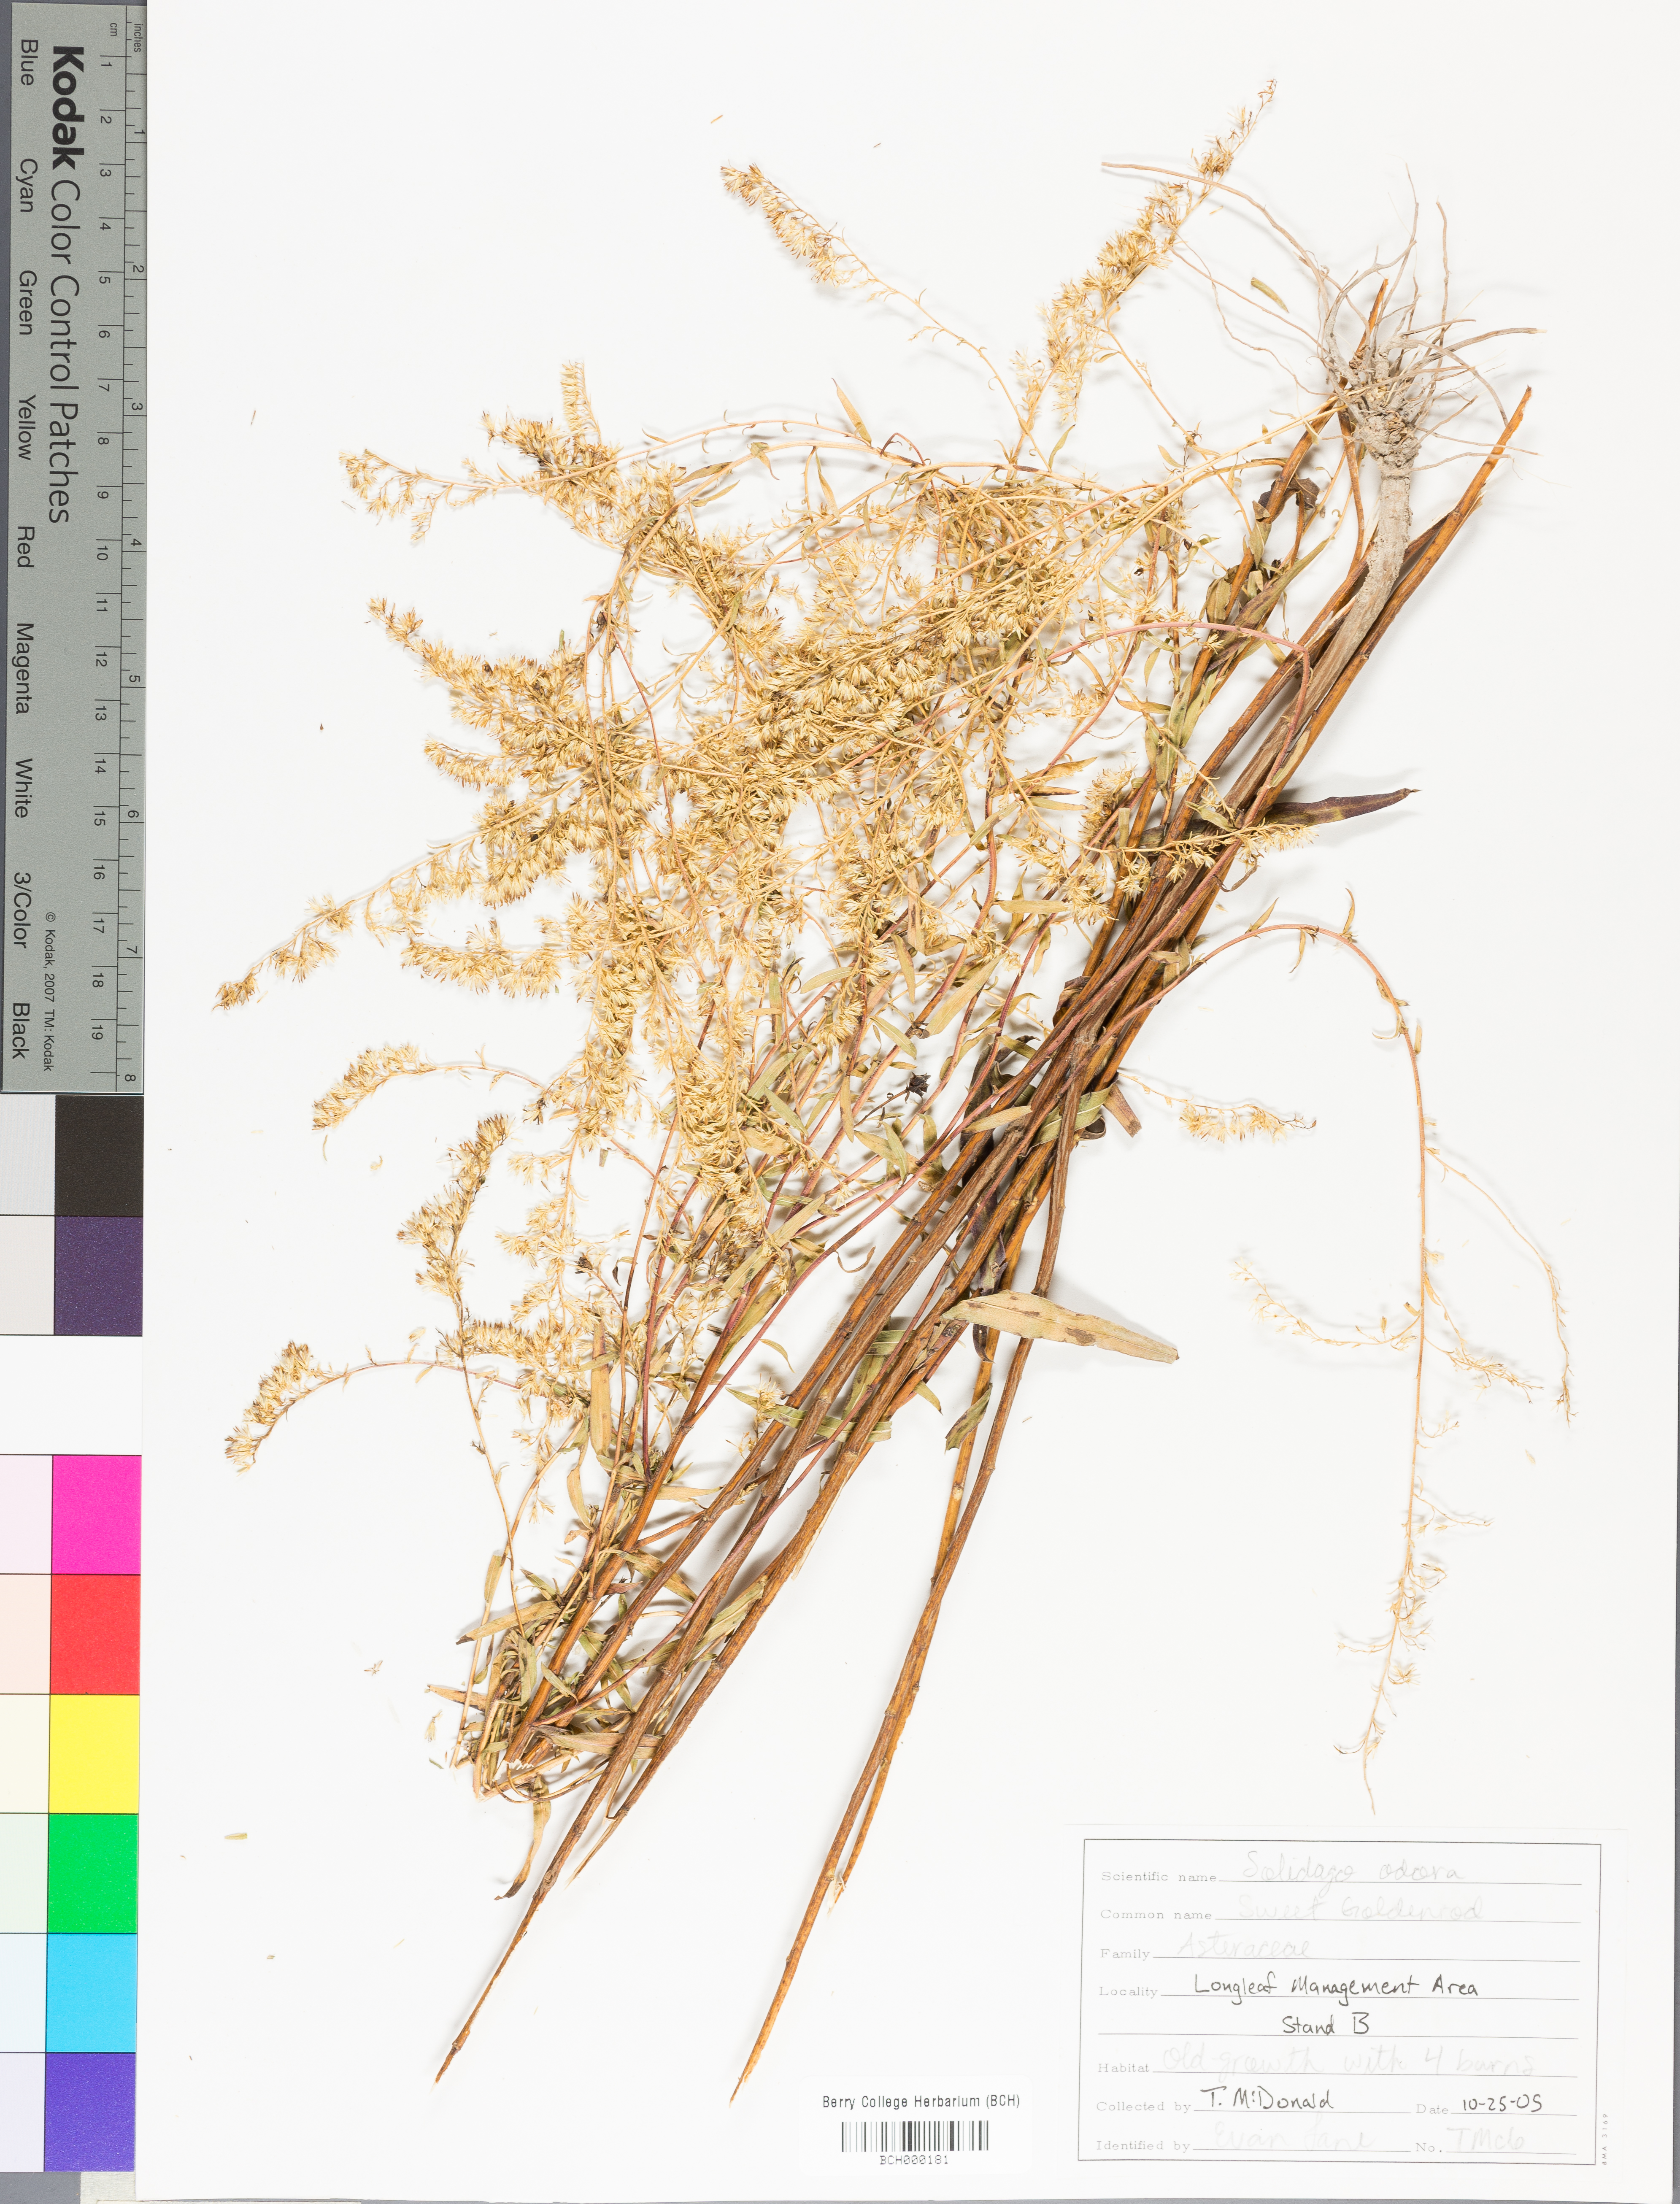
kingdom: Plantae
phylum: Tracheophyta
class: Magnoliopsida
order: Asterales
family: Asteraceae
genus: Solidago
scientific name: Solidago odora
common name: Anise-scented goldenrod
